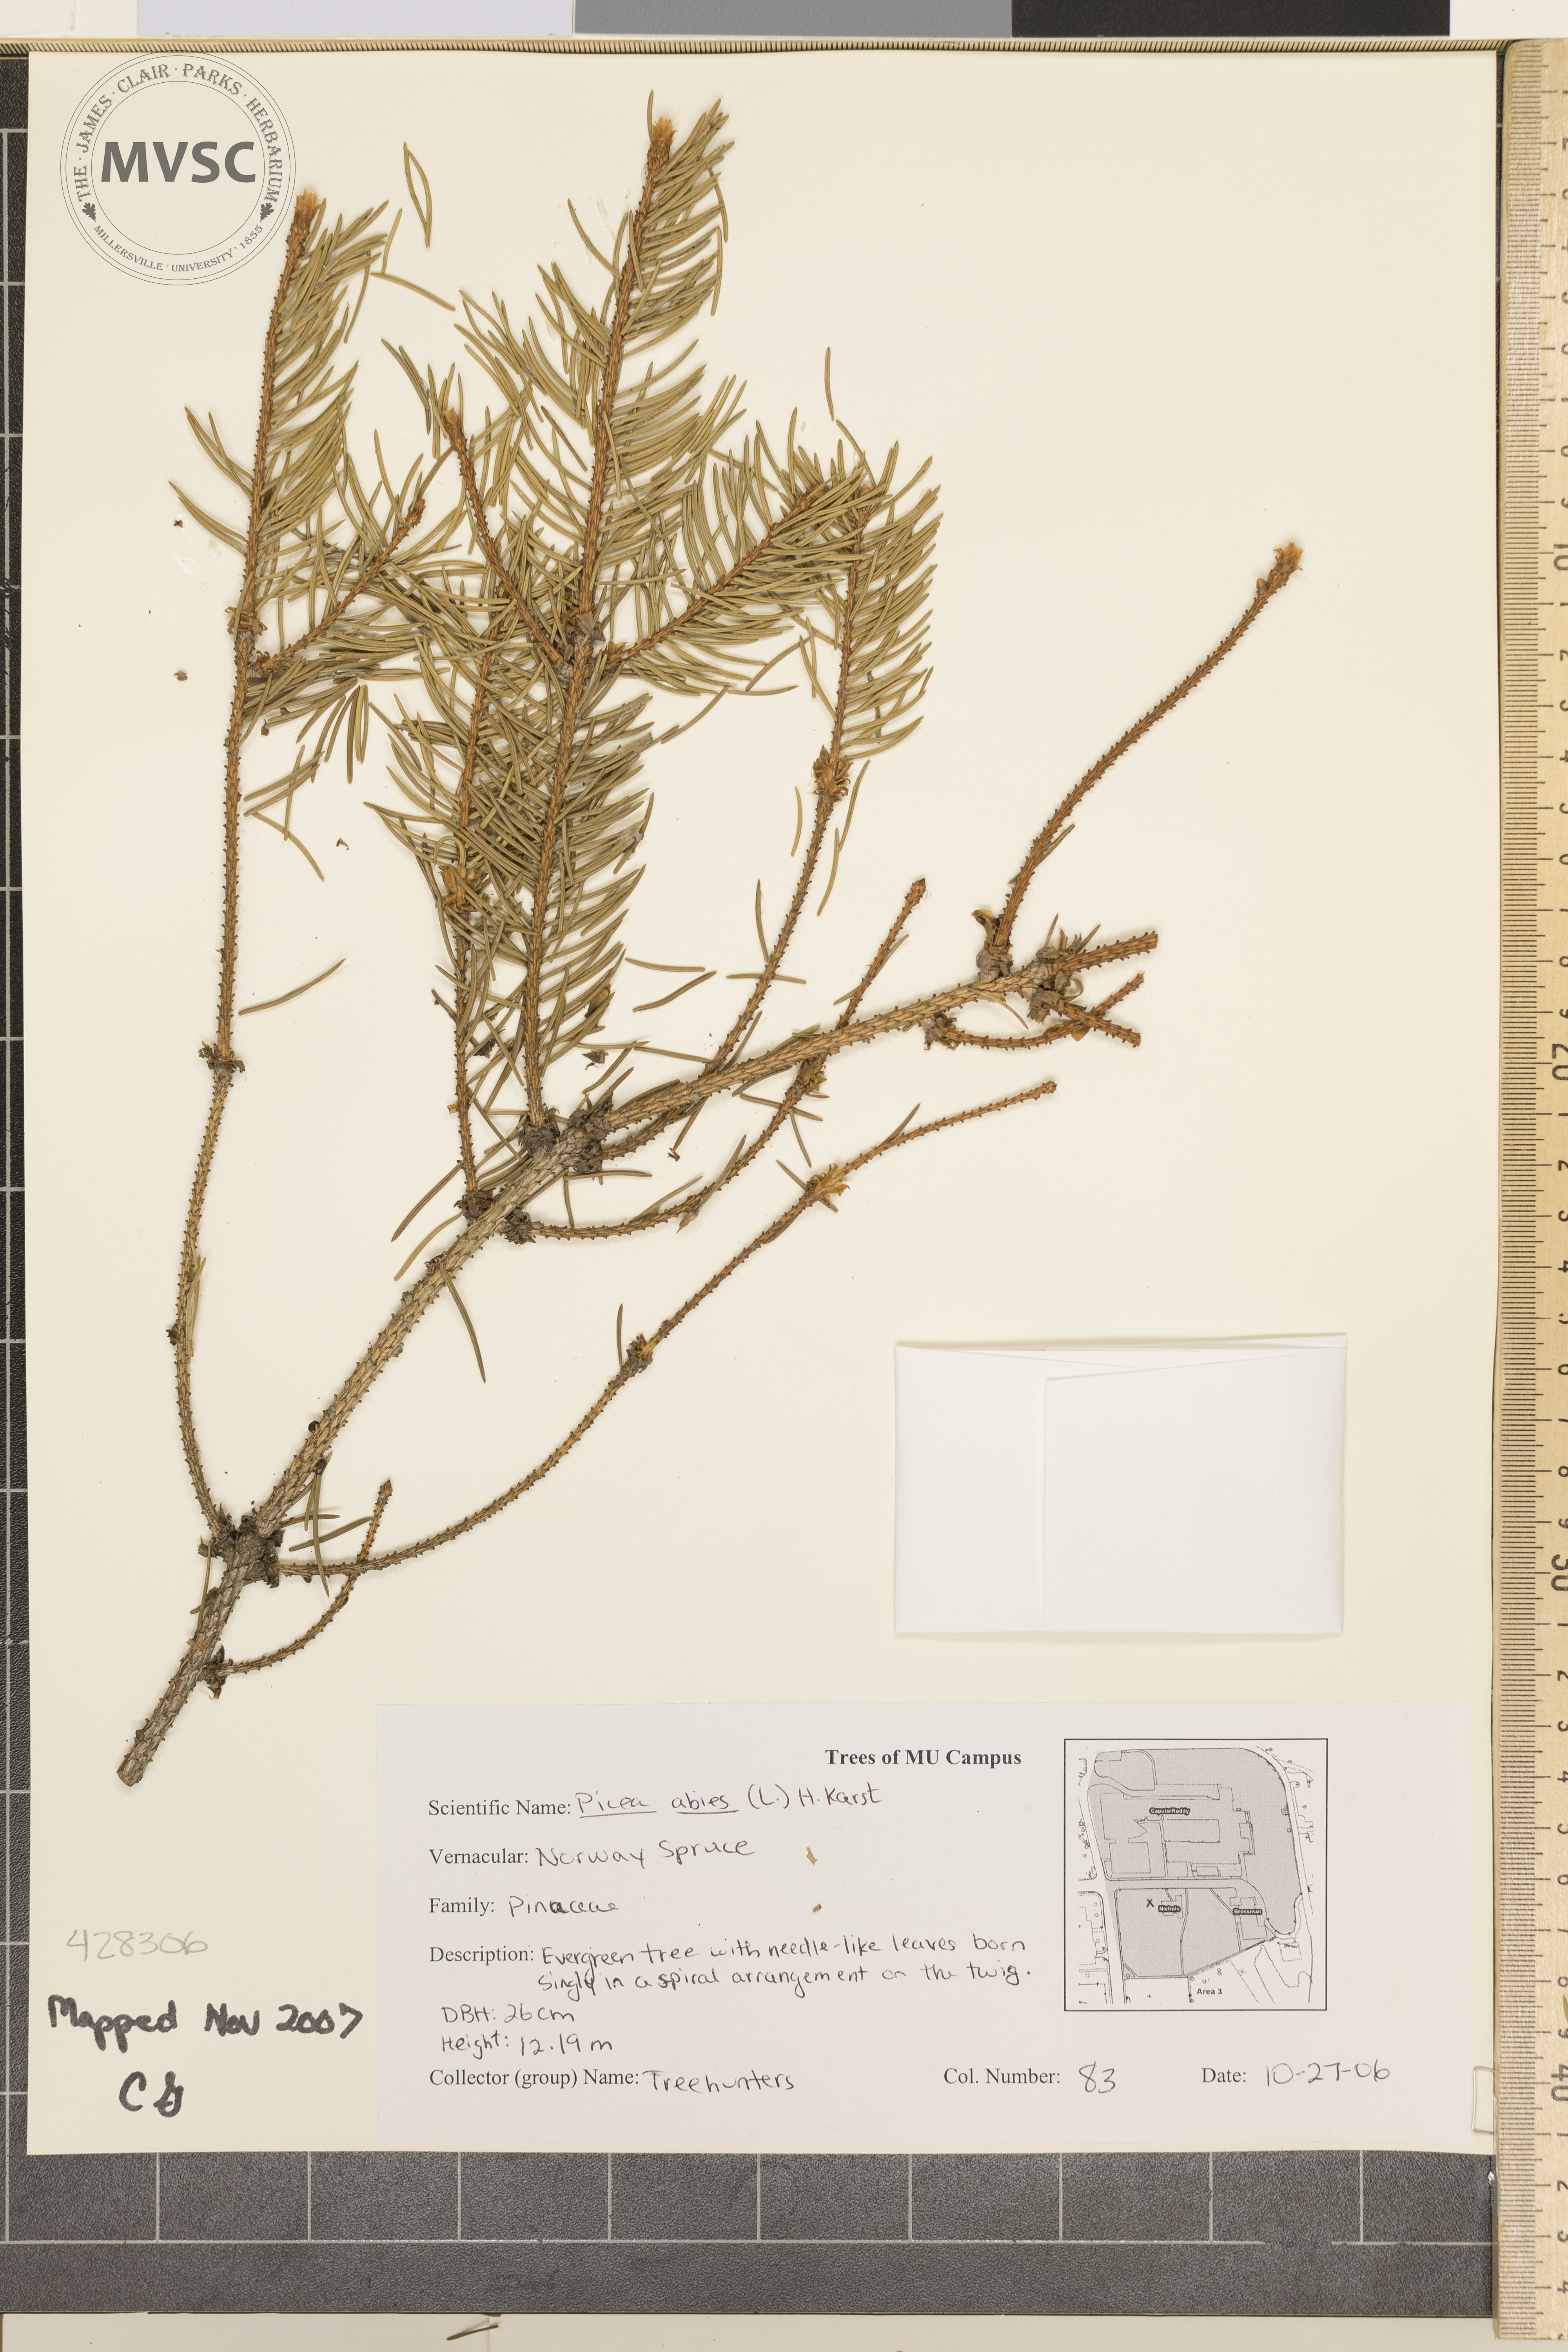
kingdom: Plantae
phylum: Tracheophyta
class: Pinopsida
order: Pinales
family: Pinaceae
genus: Picea
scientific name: Picea abies
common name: Norway Spruce
